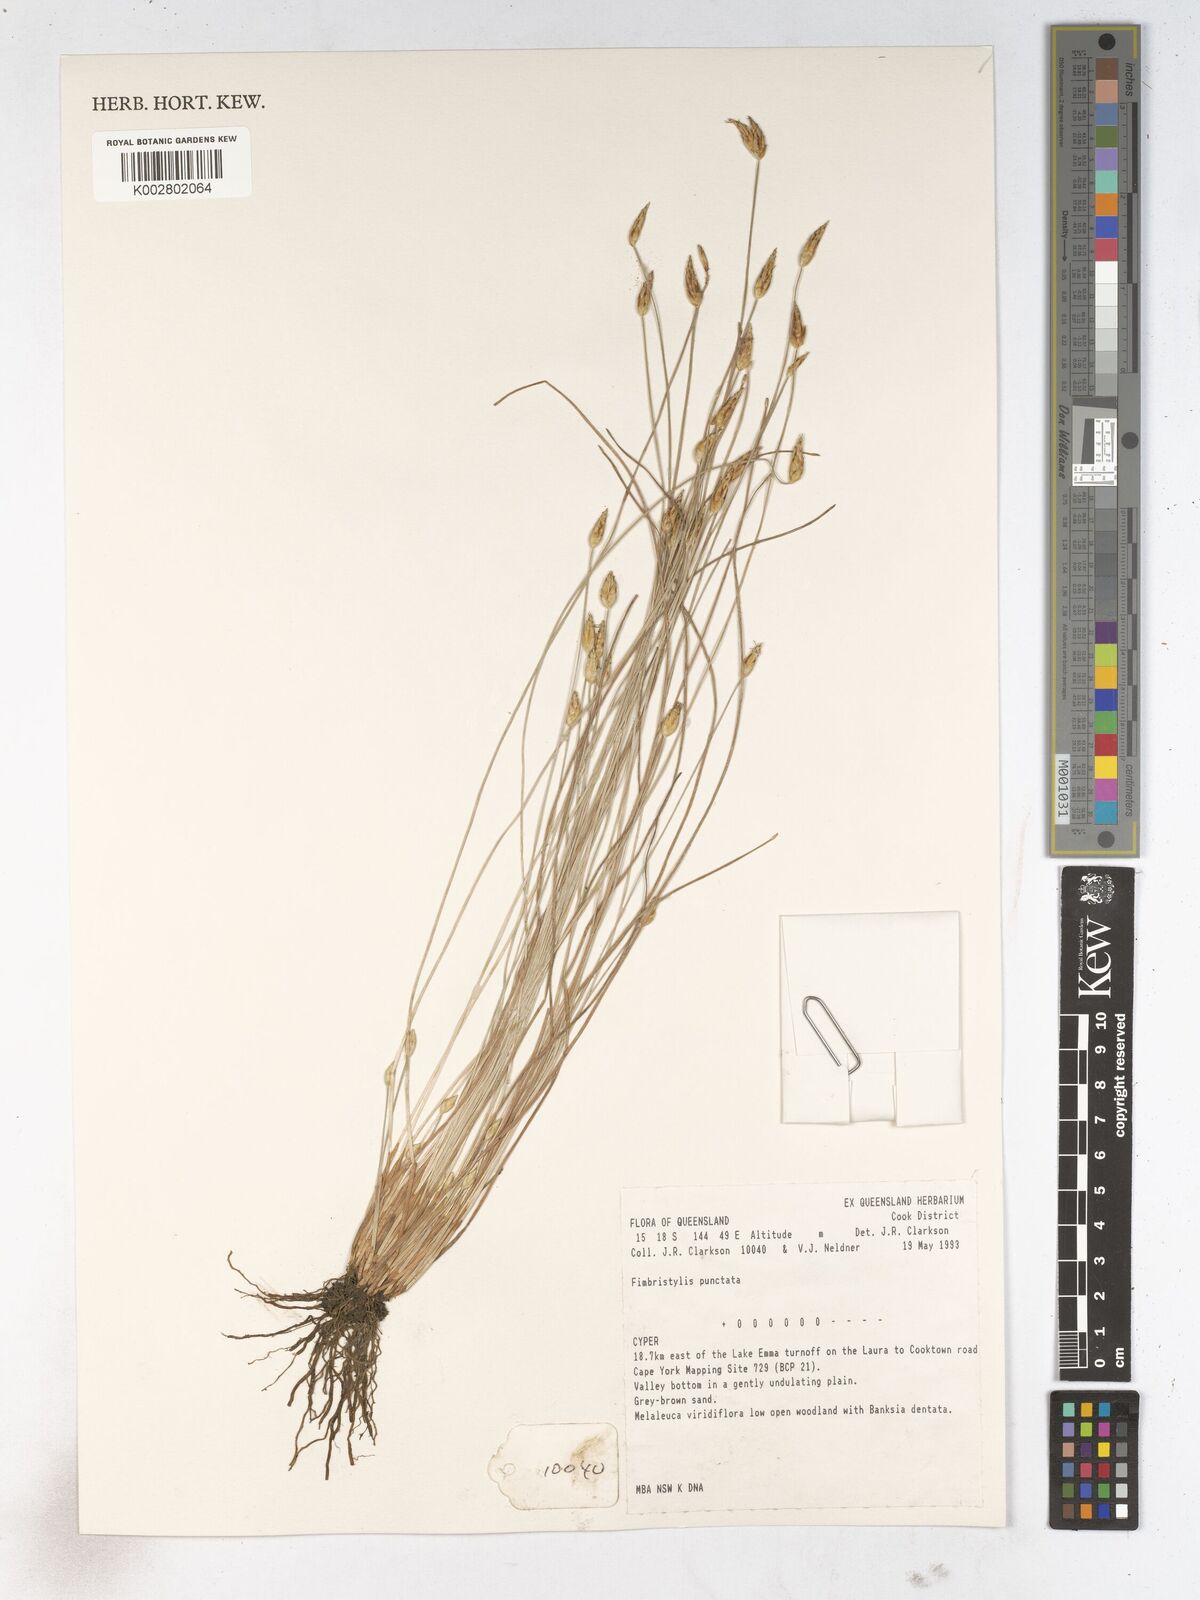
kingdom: Plantae
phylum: Tracheophyta
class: Liliopsida
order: Poales
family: Cyperaceae
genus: Fimbristylis
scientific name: Fimbristylis punctata
